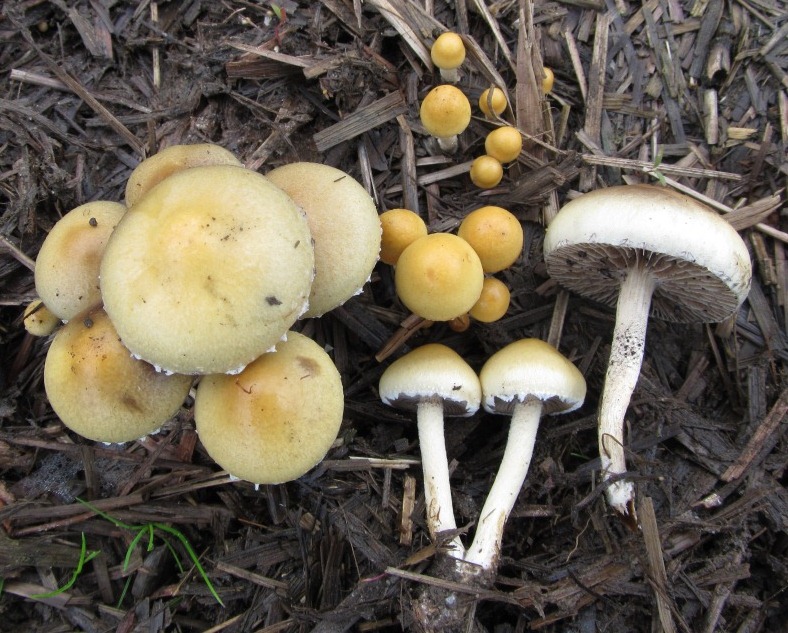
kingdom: Fungi
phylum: Basidiomycota
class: Agaricomycetes
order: Agaricales
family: Strophariaceae
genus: Deconica
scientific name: Deconica merdaria
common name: møg-stråhat
